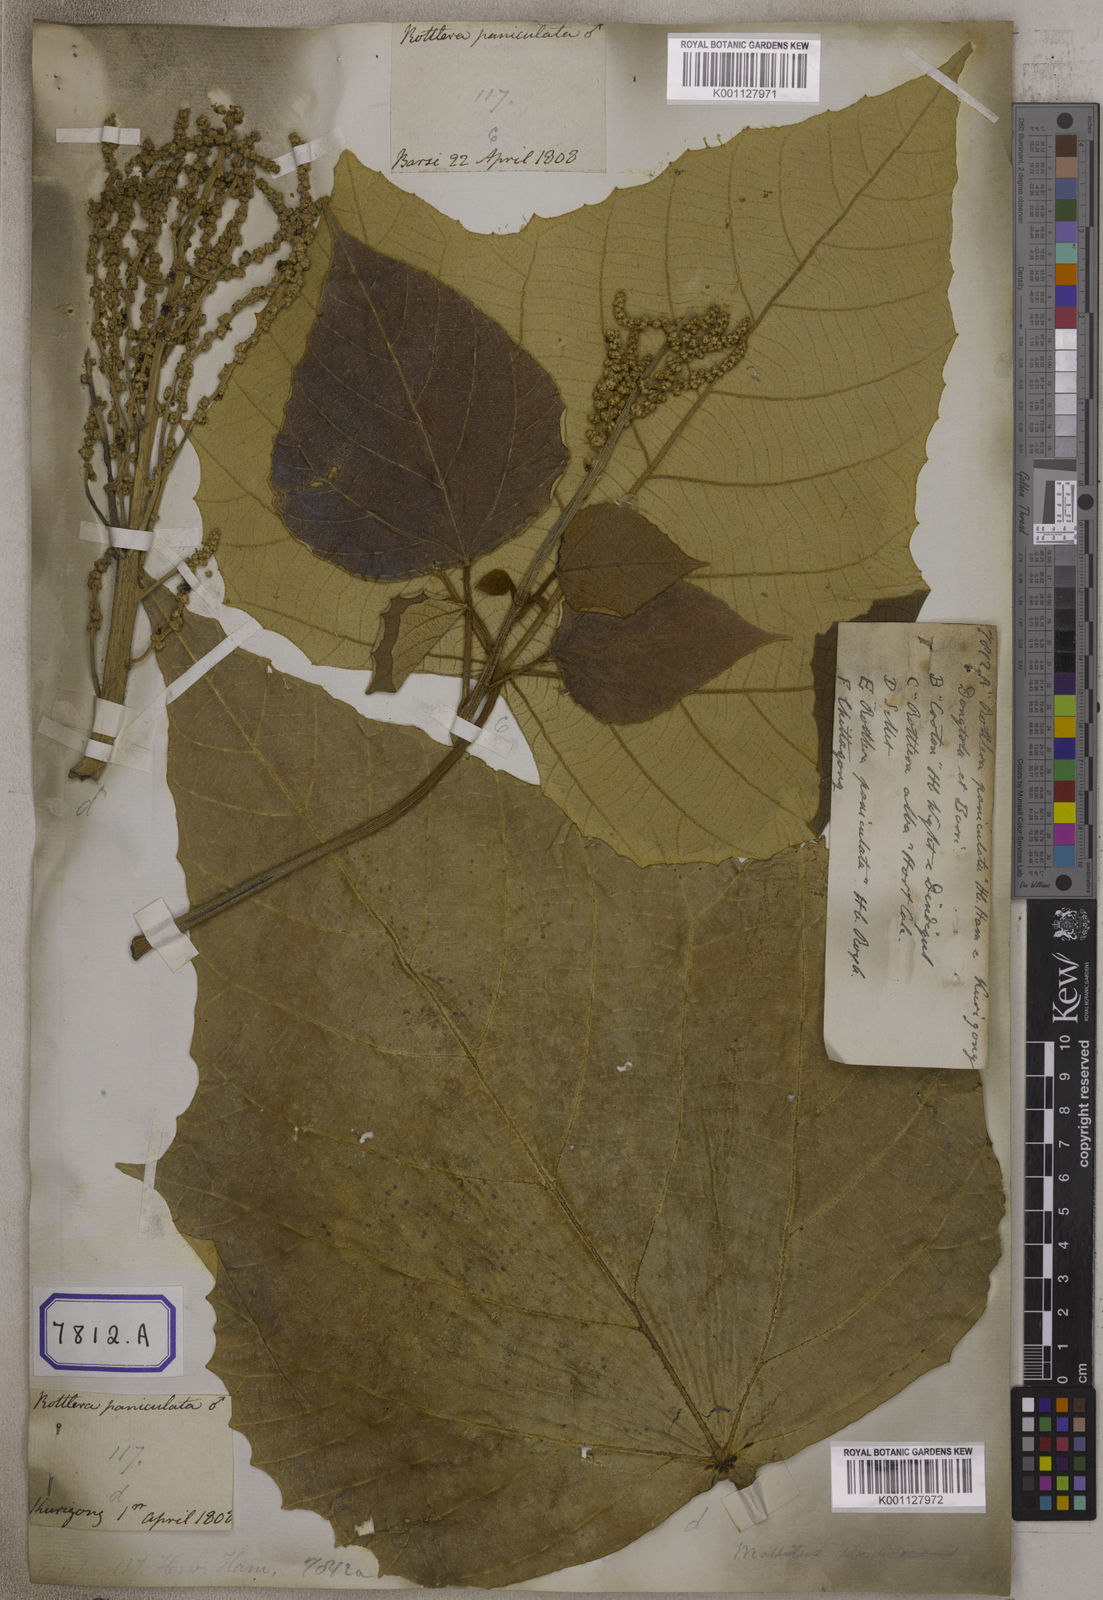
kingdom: Plantae
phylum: Tracheophyta
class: Magnoliopsida
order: Malpighiales
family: Euphorbiaceae
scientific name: Euphorbiaceae
